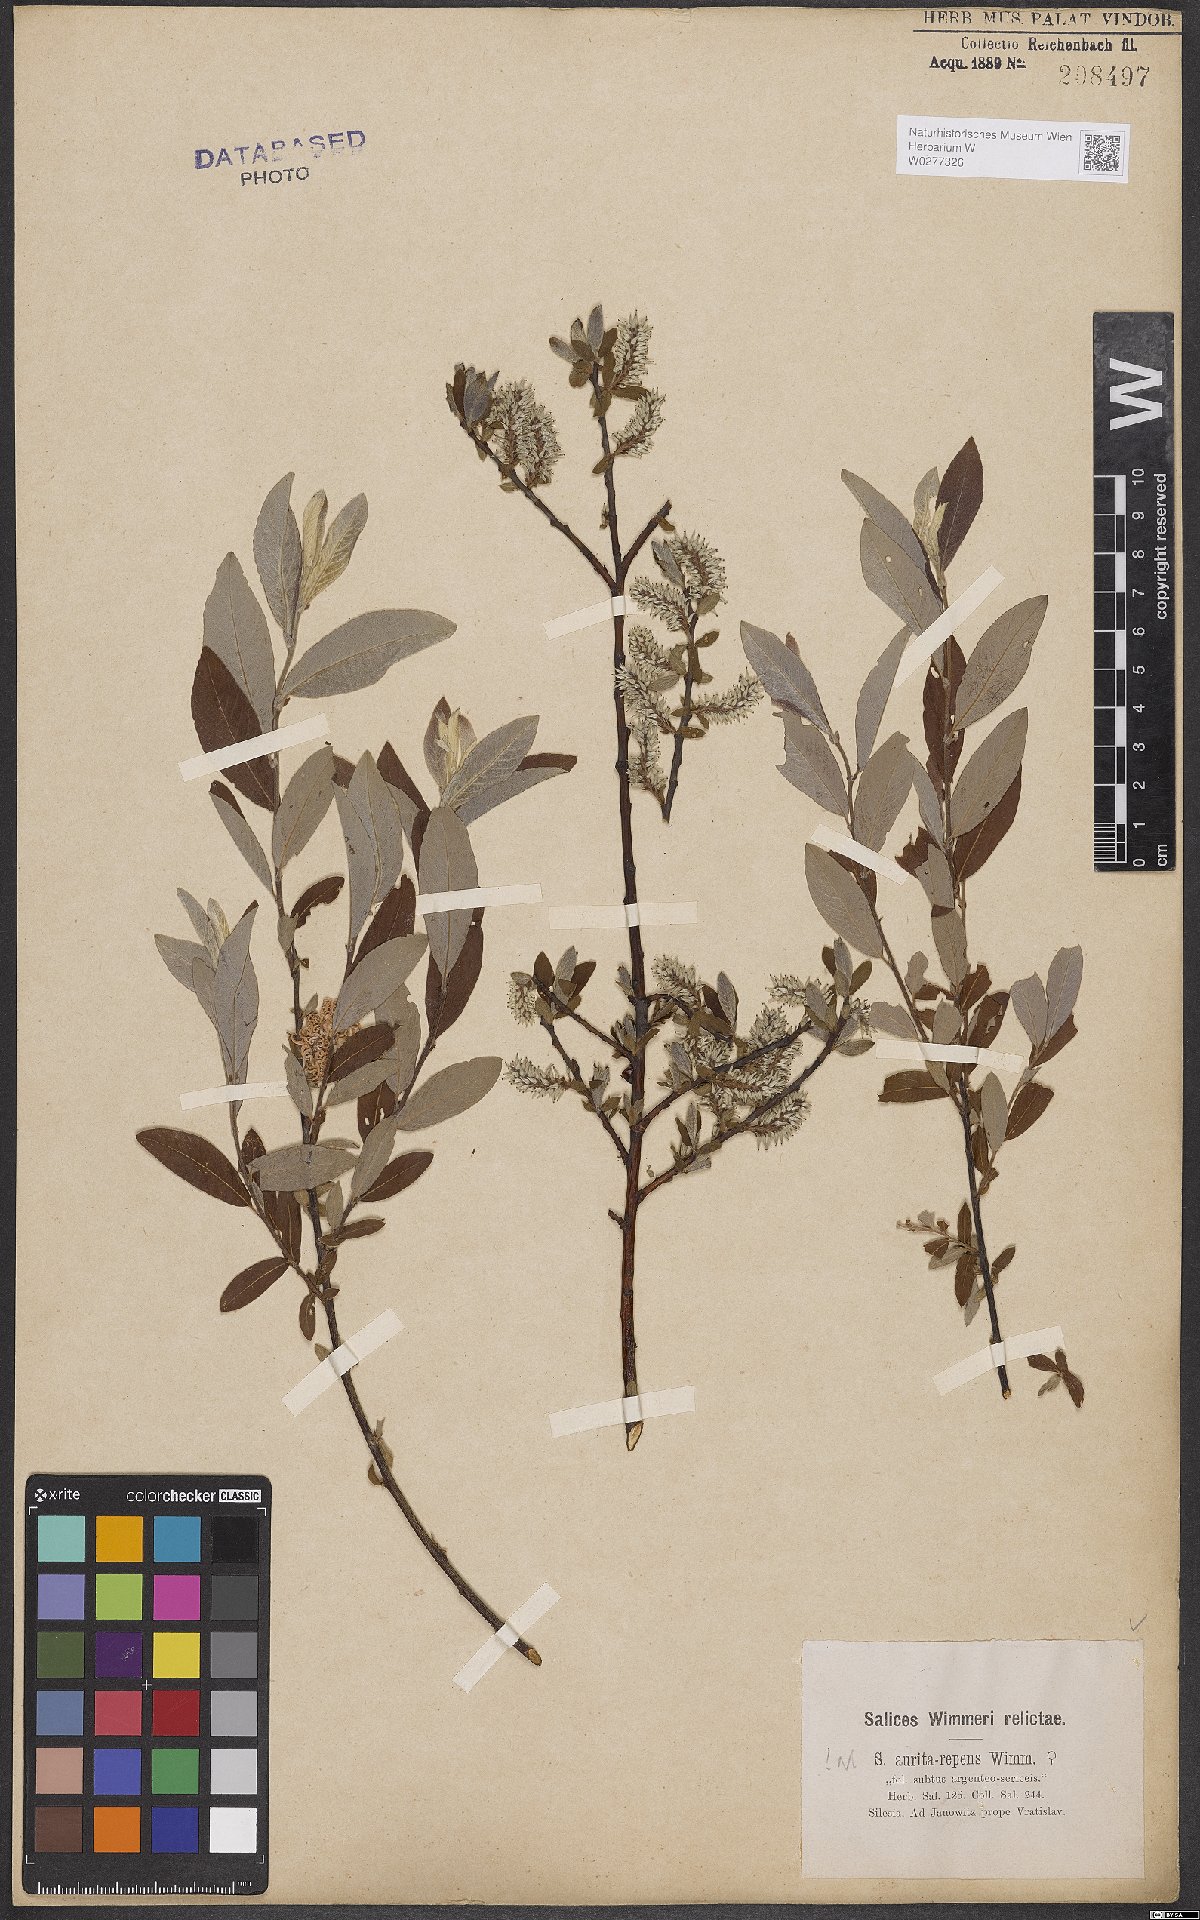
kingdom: Plantae
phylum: Tracheophyta
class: Magnoliopsida
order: Malpighiales
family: Salicaceae
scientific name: Salicaceae
